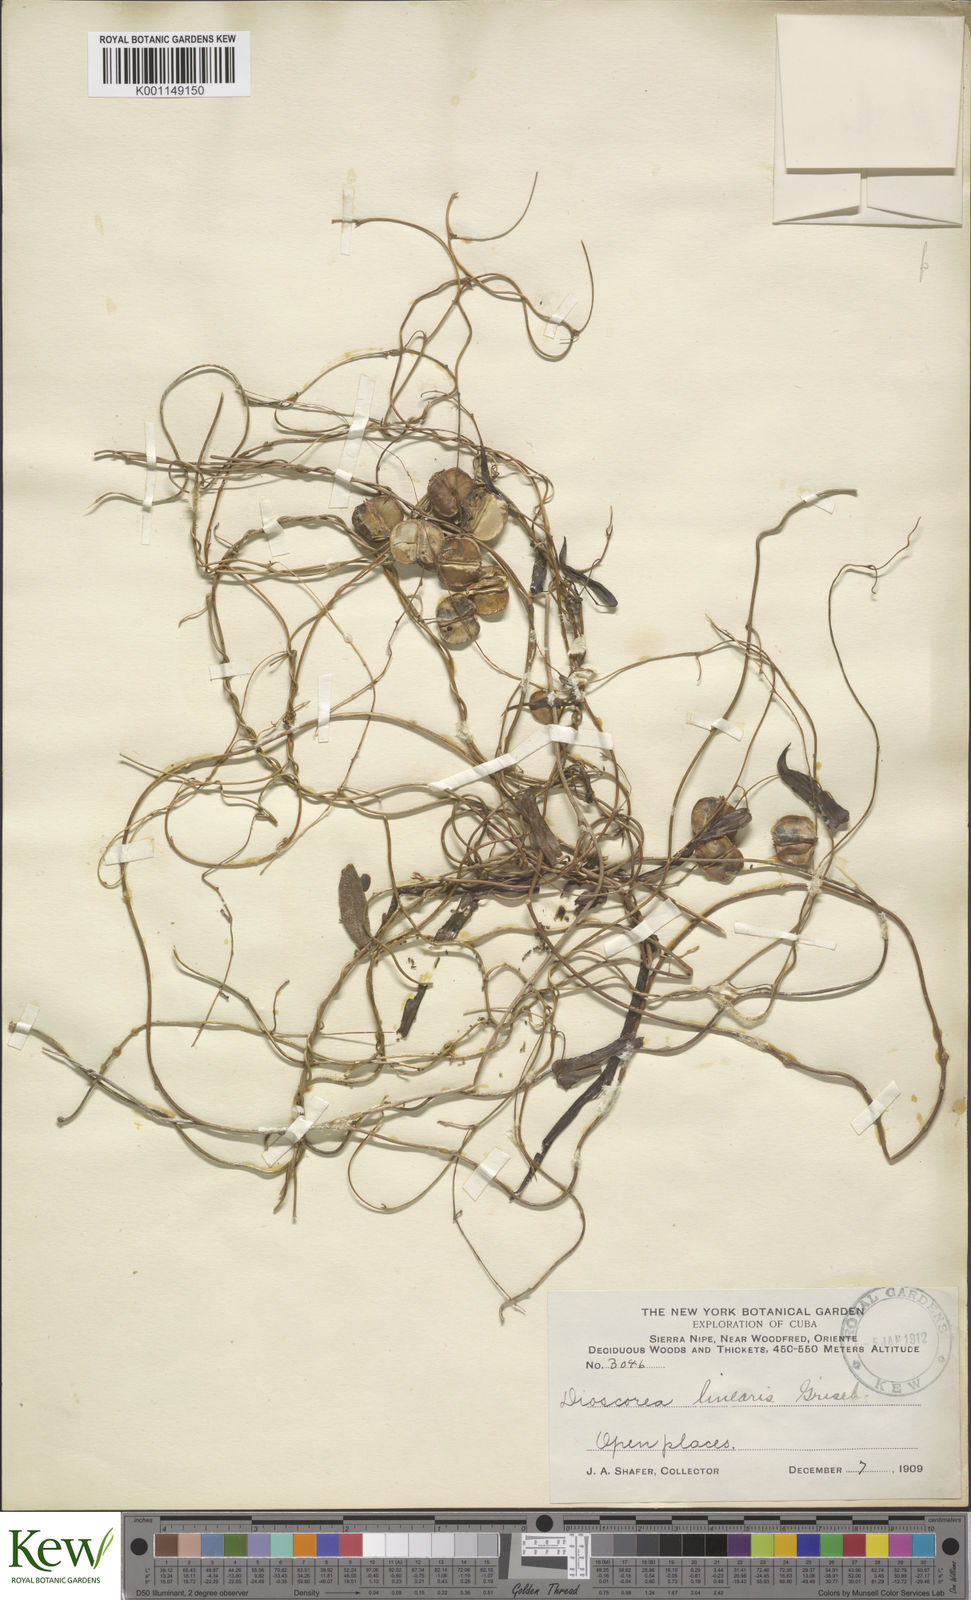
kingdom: Plantae
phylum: Tracheophyta
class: Liliopsida
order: Dioscoreales
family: Dioscoreaceae
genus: Dioscorea
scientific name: Dioscorea nipensis
